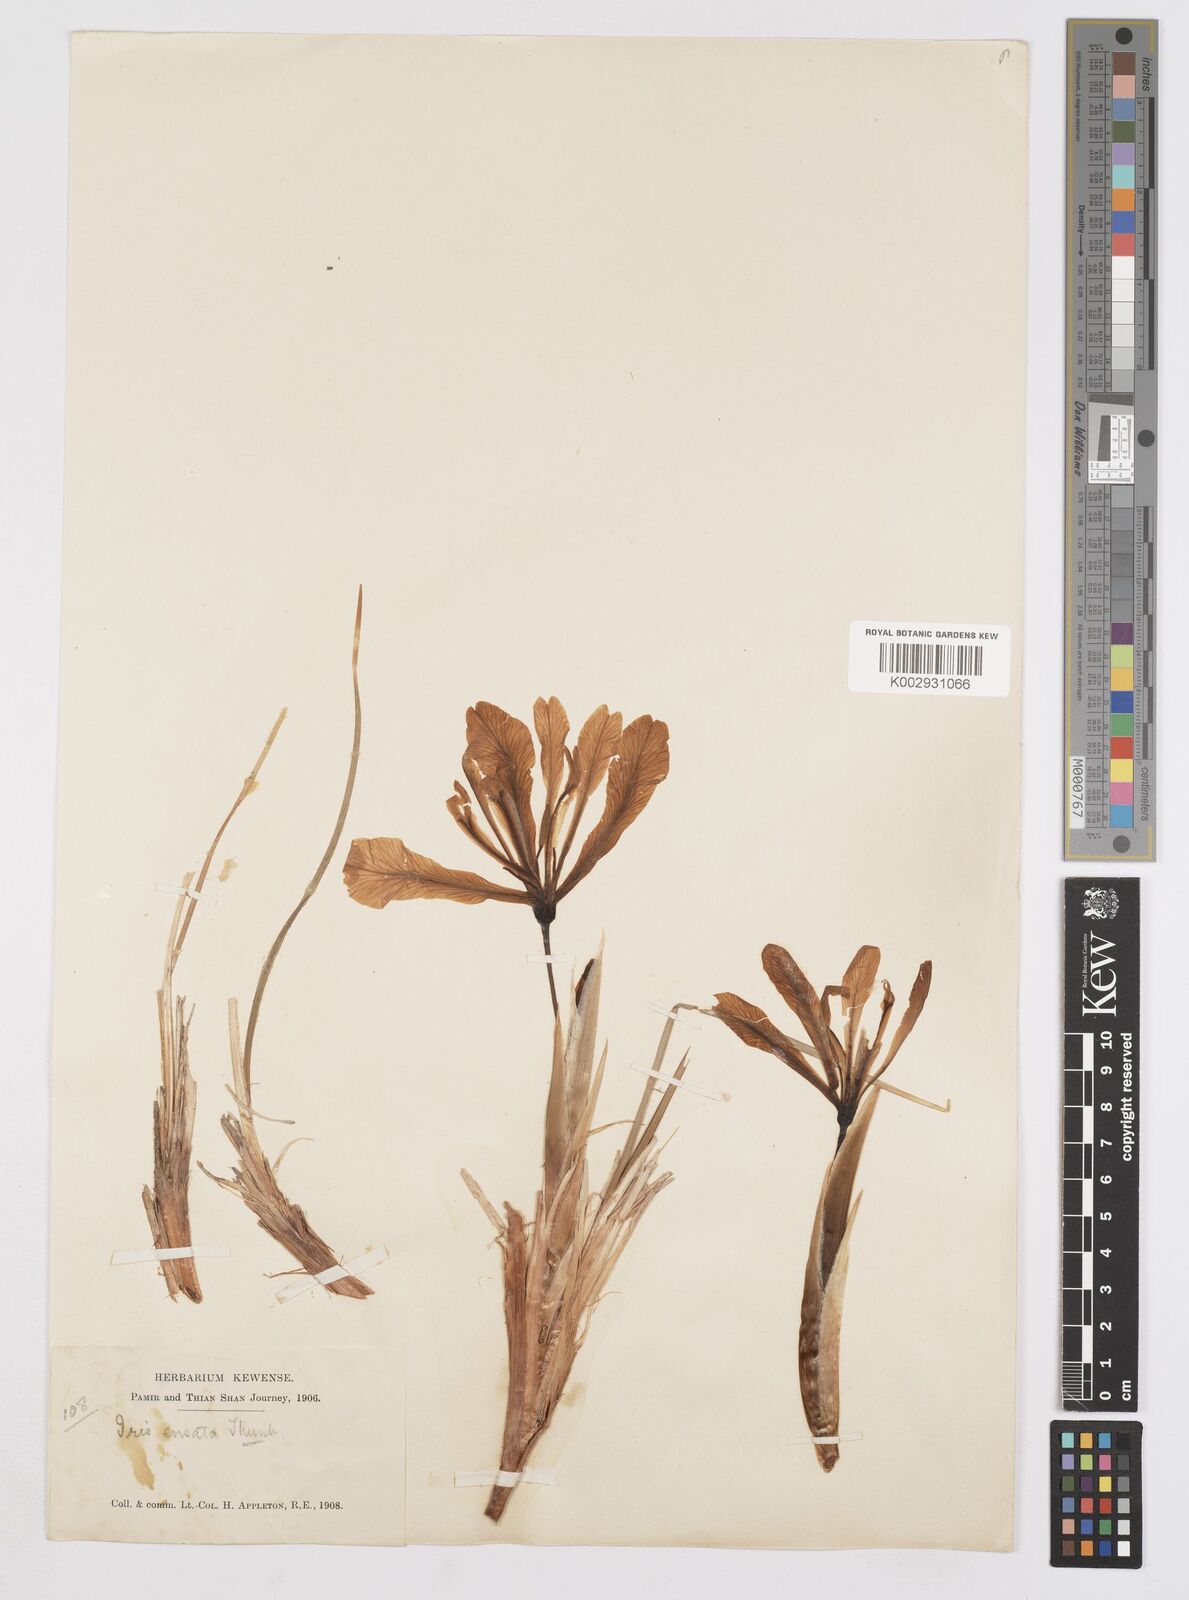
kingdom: Plantae
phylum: Tracheophyta
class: Liliopsida
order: Asparagales
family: Iridaceae
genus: Iris
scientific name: Iris tenuifolia
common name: Slender-leaf iris
